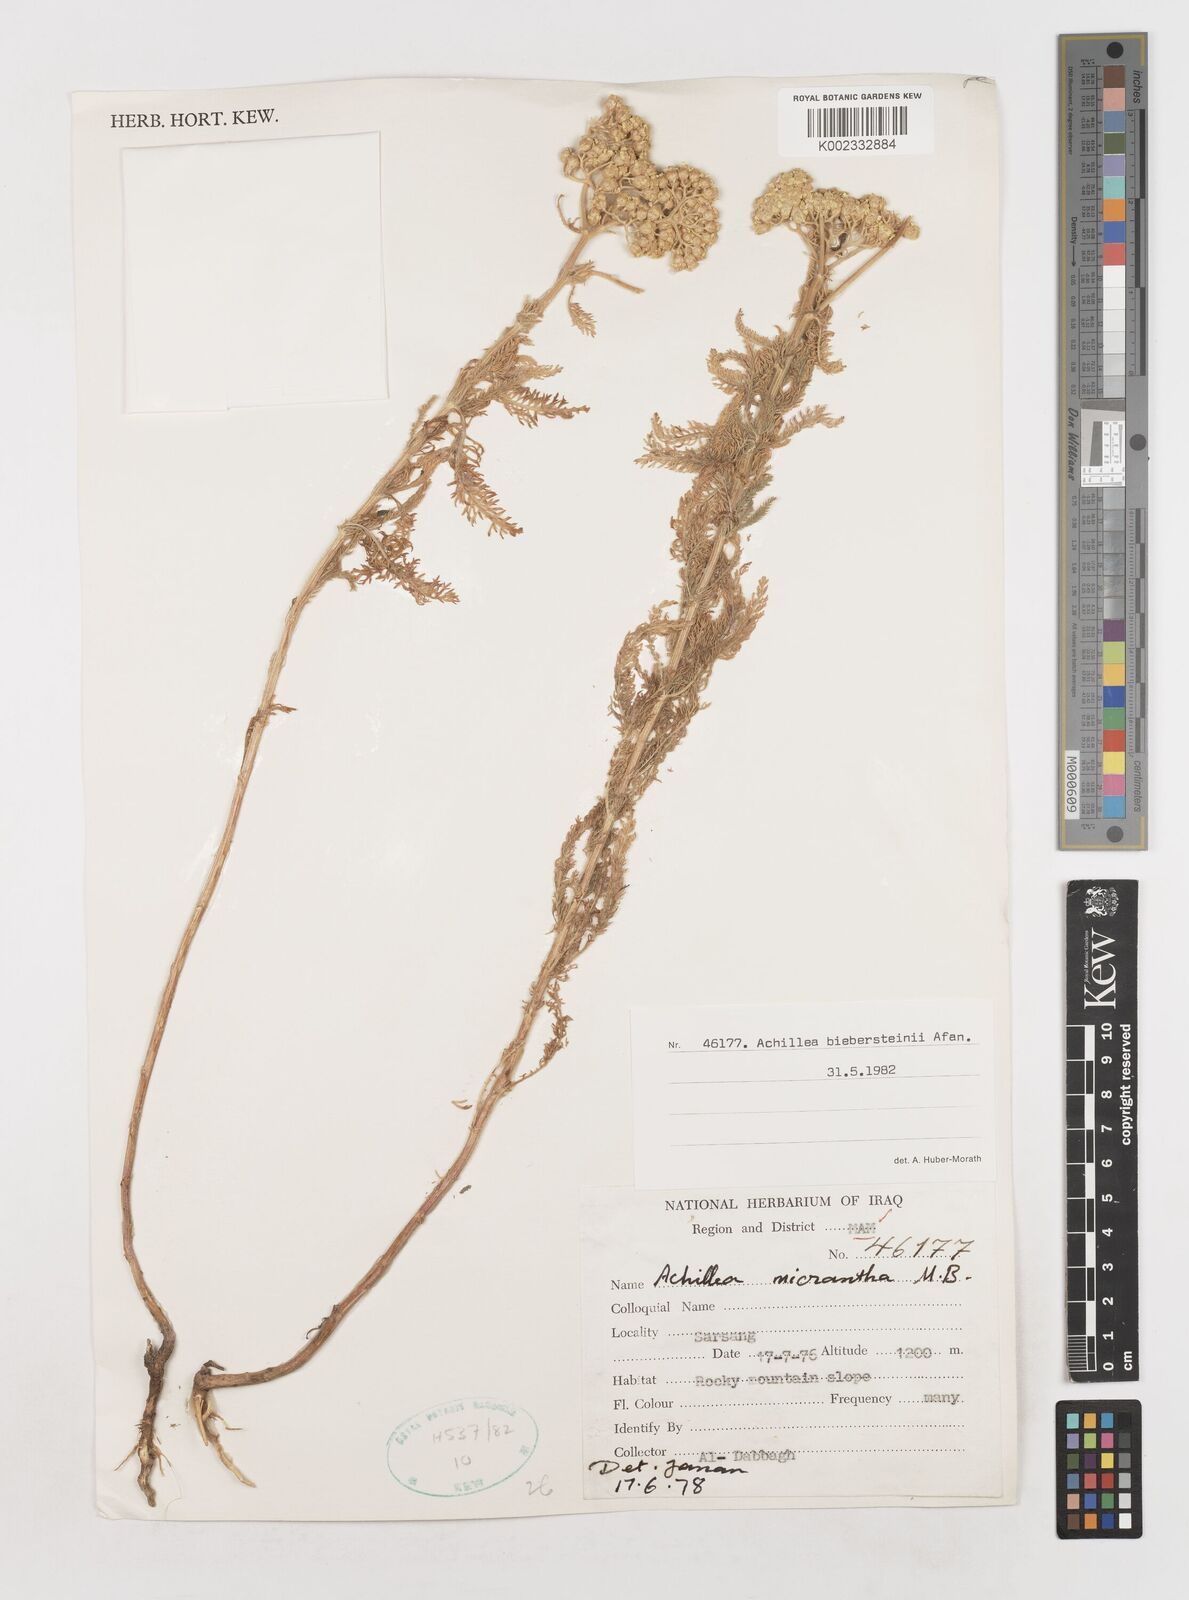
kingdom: Plantae
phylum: Tracheophyta
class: Magnoliopsida
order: Asterales
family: Asteraceae
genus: Achillea
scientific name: Achillea arabica
